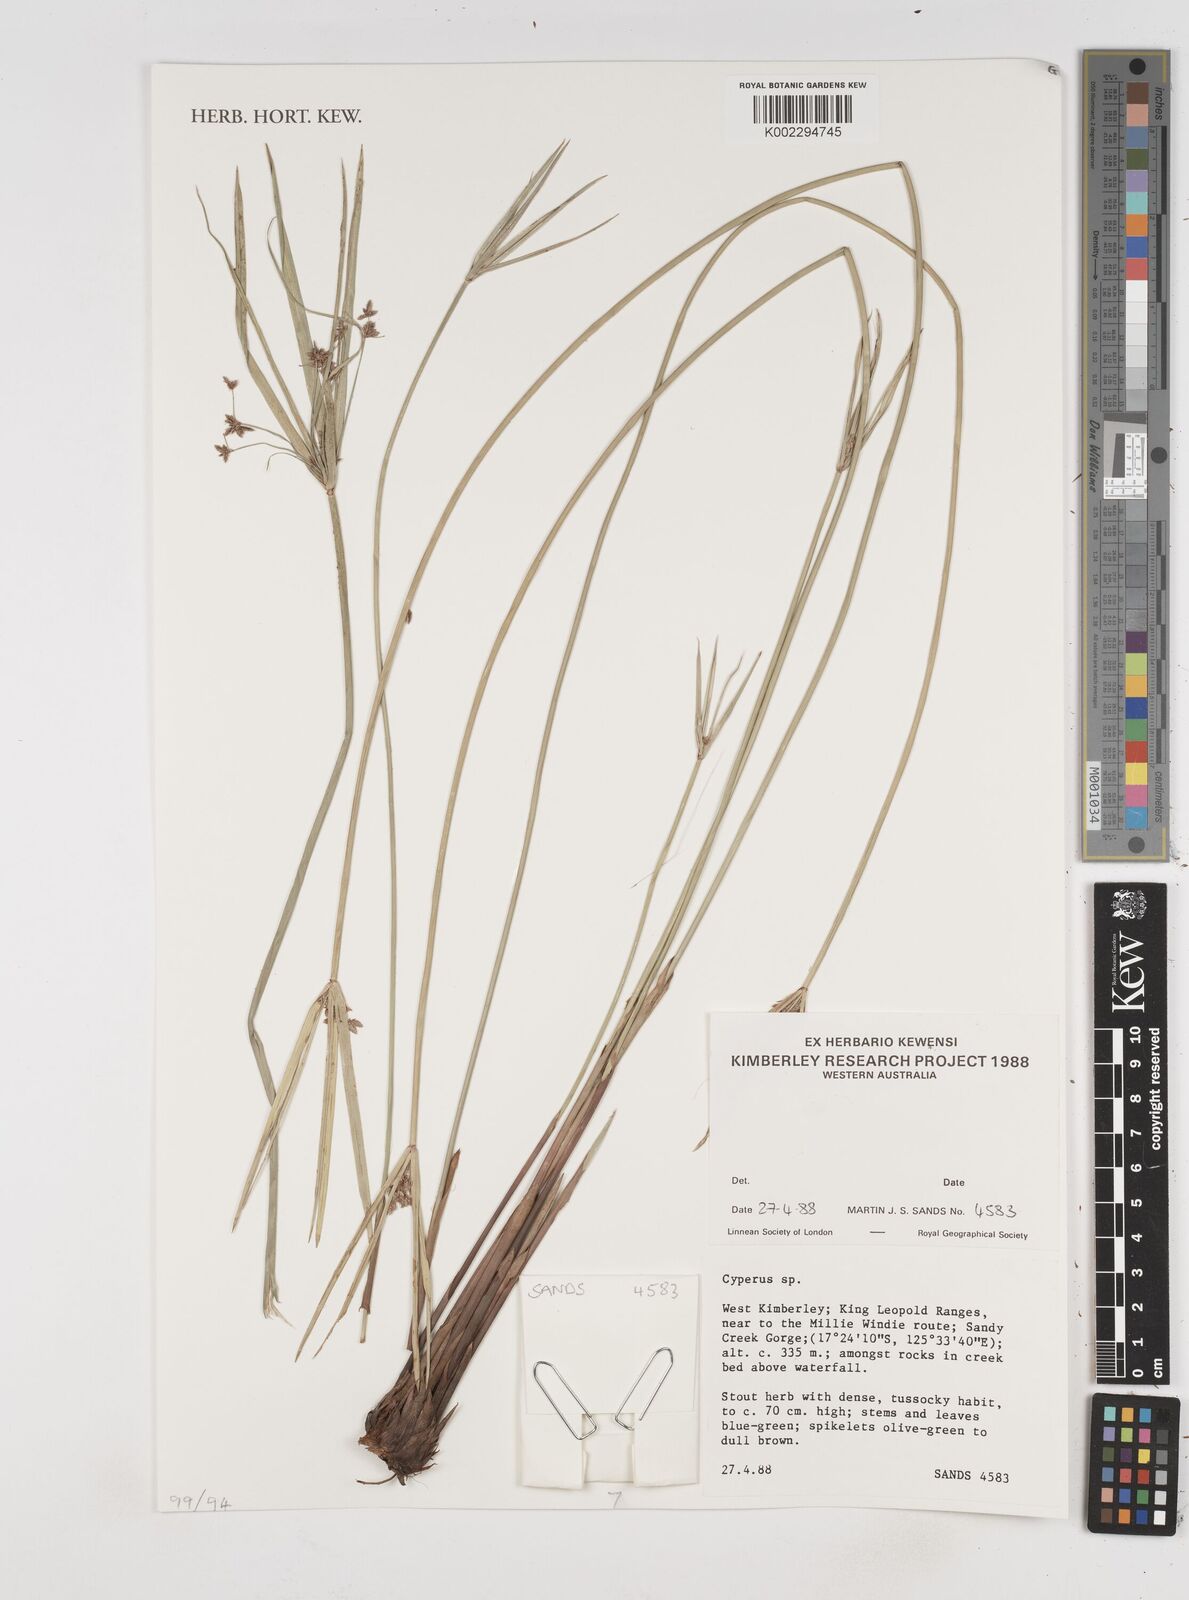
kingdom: Plantae
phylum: Tracheophyta
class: Liliopsida
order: Poales
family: Cyperaceae
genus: Cyperus
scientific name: Cyperus
